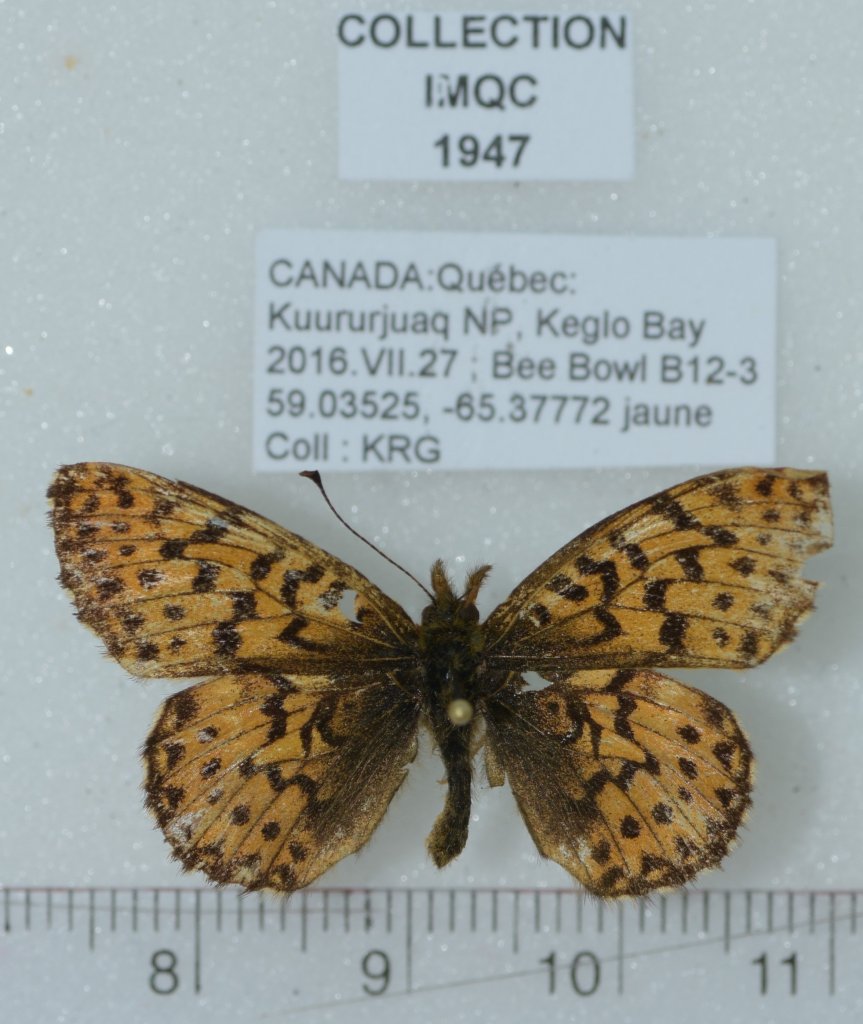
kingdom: Animalia
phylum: Arthropoda
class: Insecta
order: Lepidoptera
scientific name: Lepidoptera
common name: Butterflies
